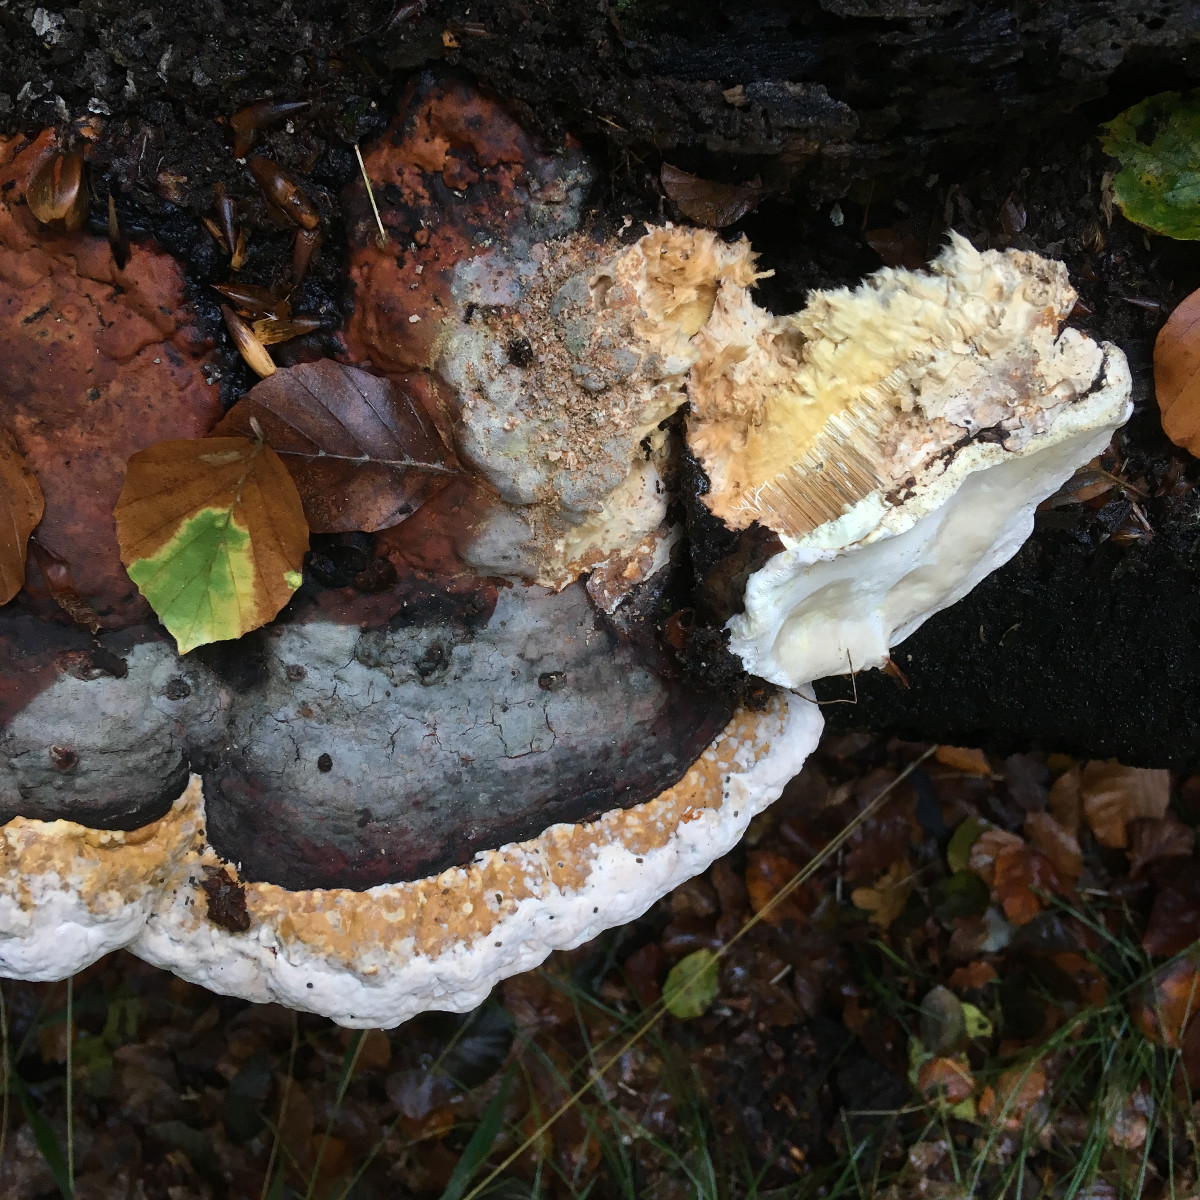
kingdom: Fungi
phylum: Basidiomycota
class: Agaricomycetes
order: Polyporales
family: Fomitopsidaceae
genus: Fomitopsis
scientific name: Fomitopsis pinicola
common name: randbæltet hovporesvamp
